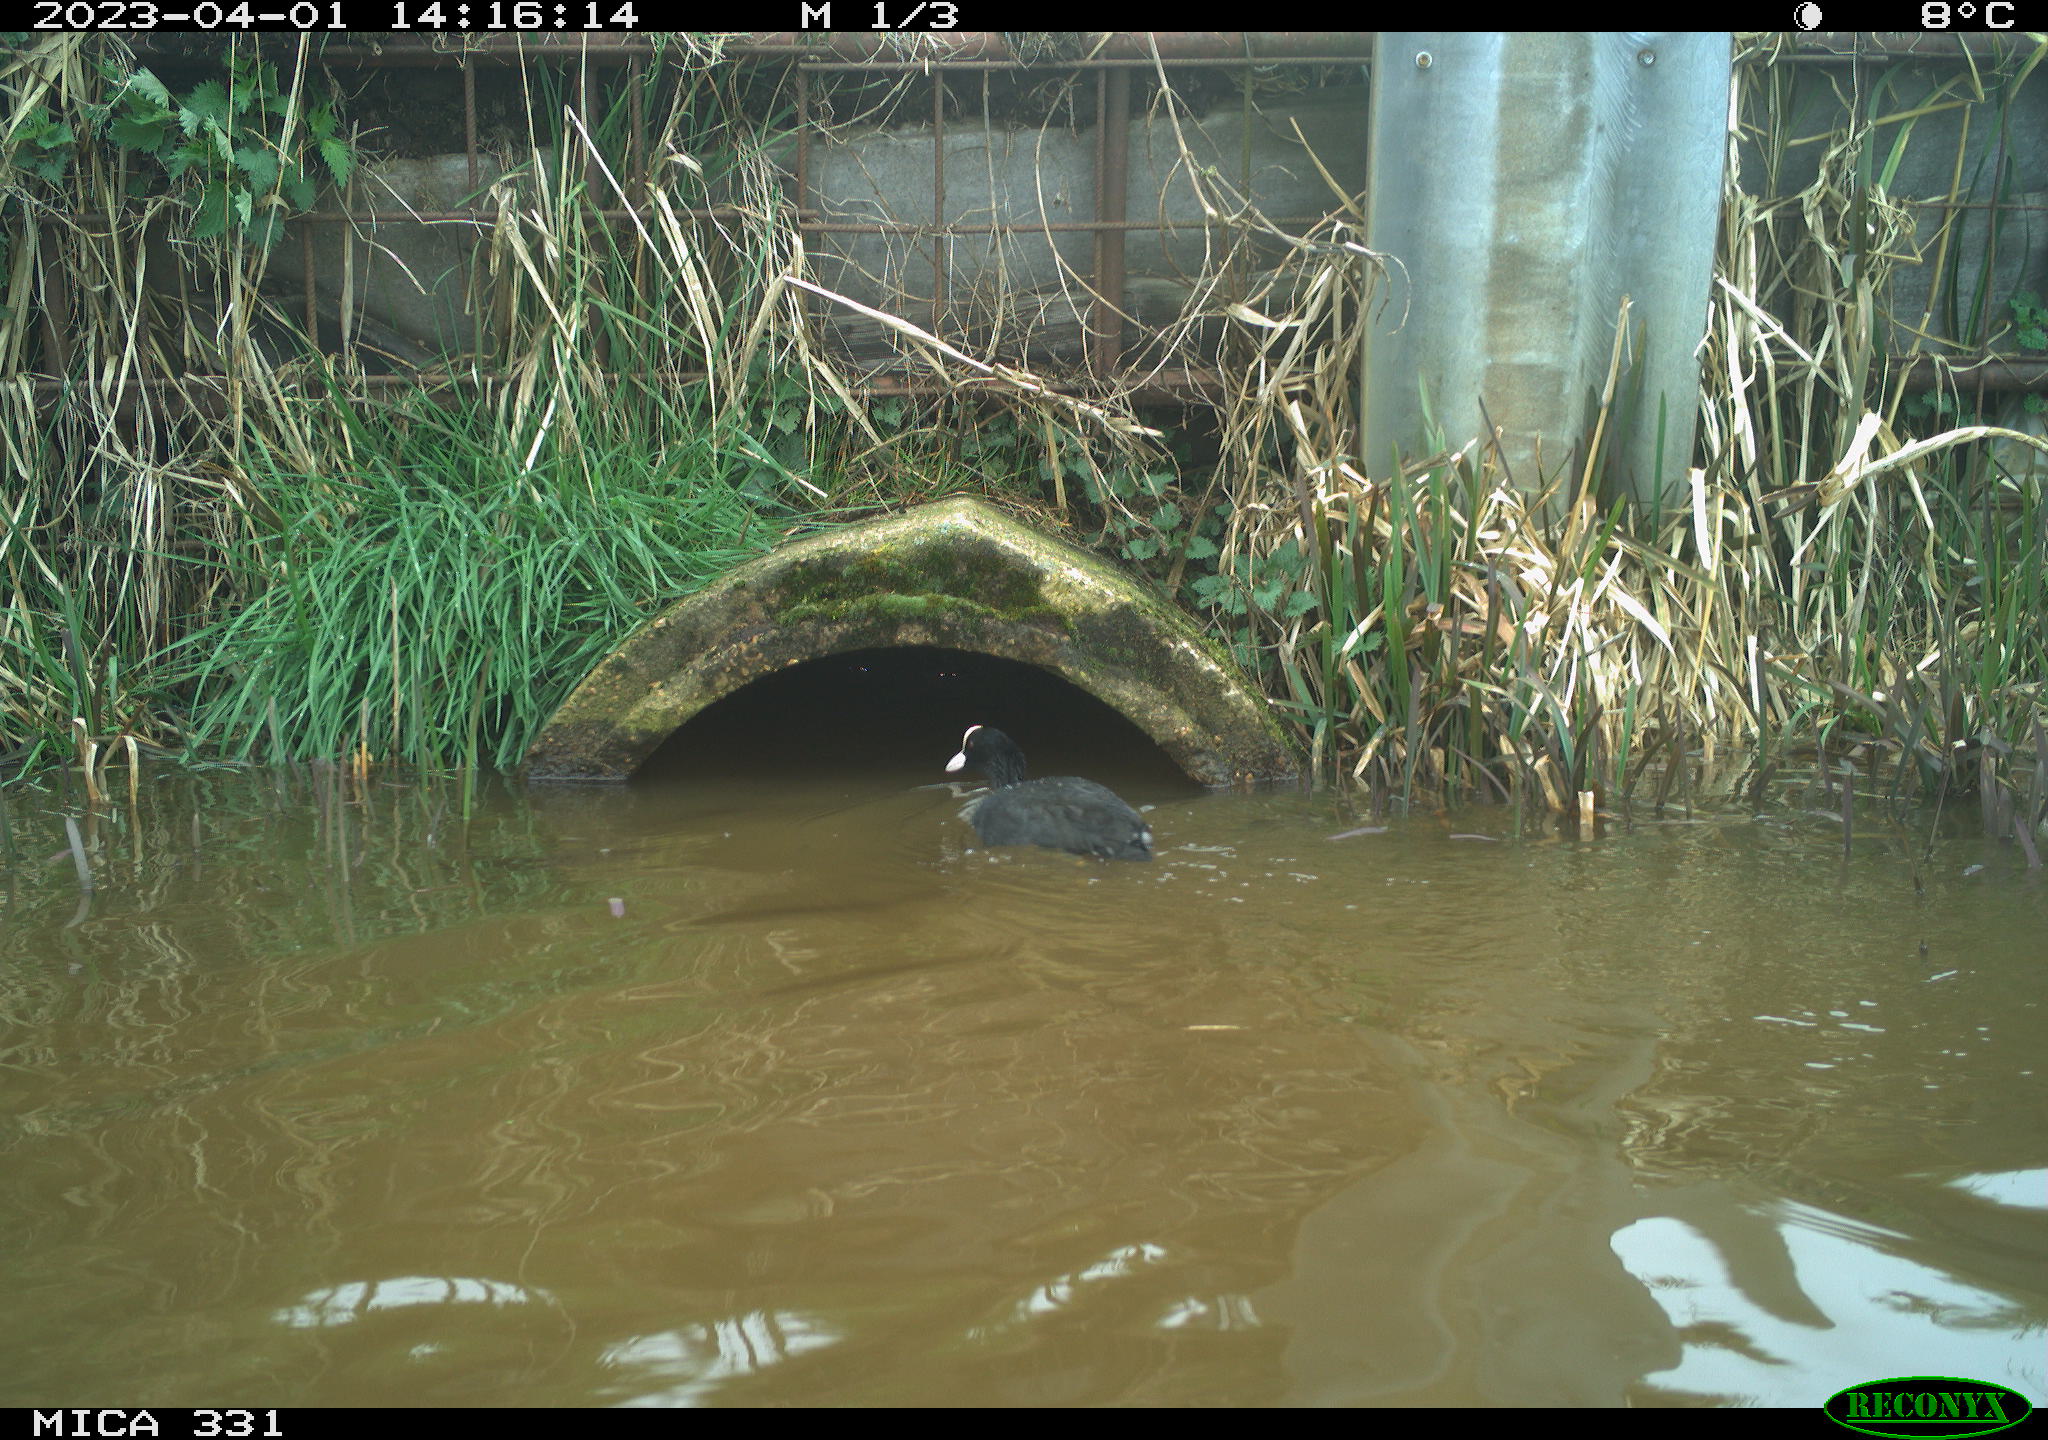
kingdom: Animalia
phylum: Chordata
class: Aves
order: Gruiformes
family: Rallidae
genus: Fulica
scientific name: Fulica atra
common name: Eurasian coot
